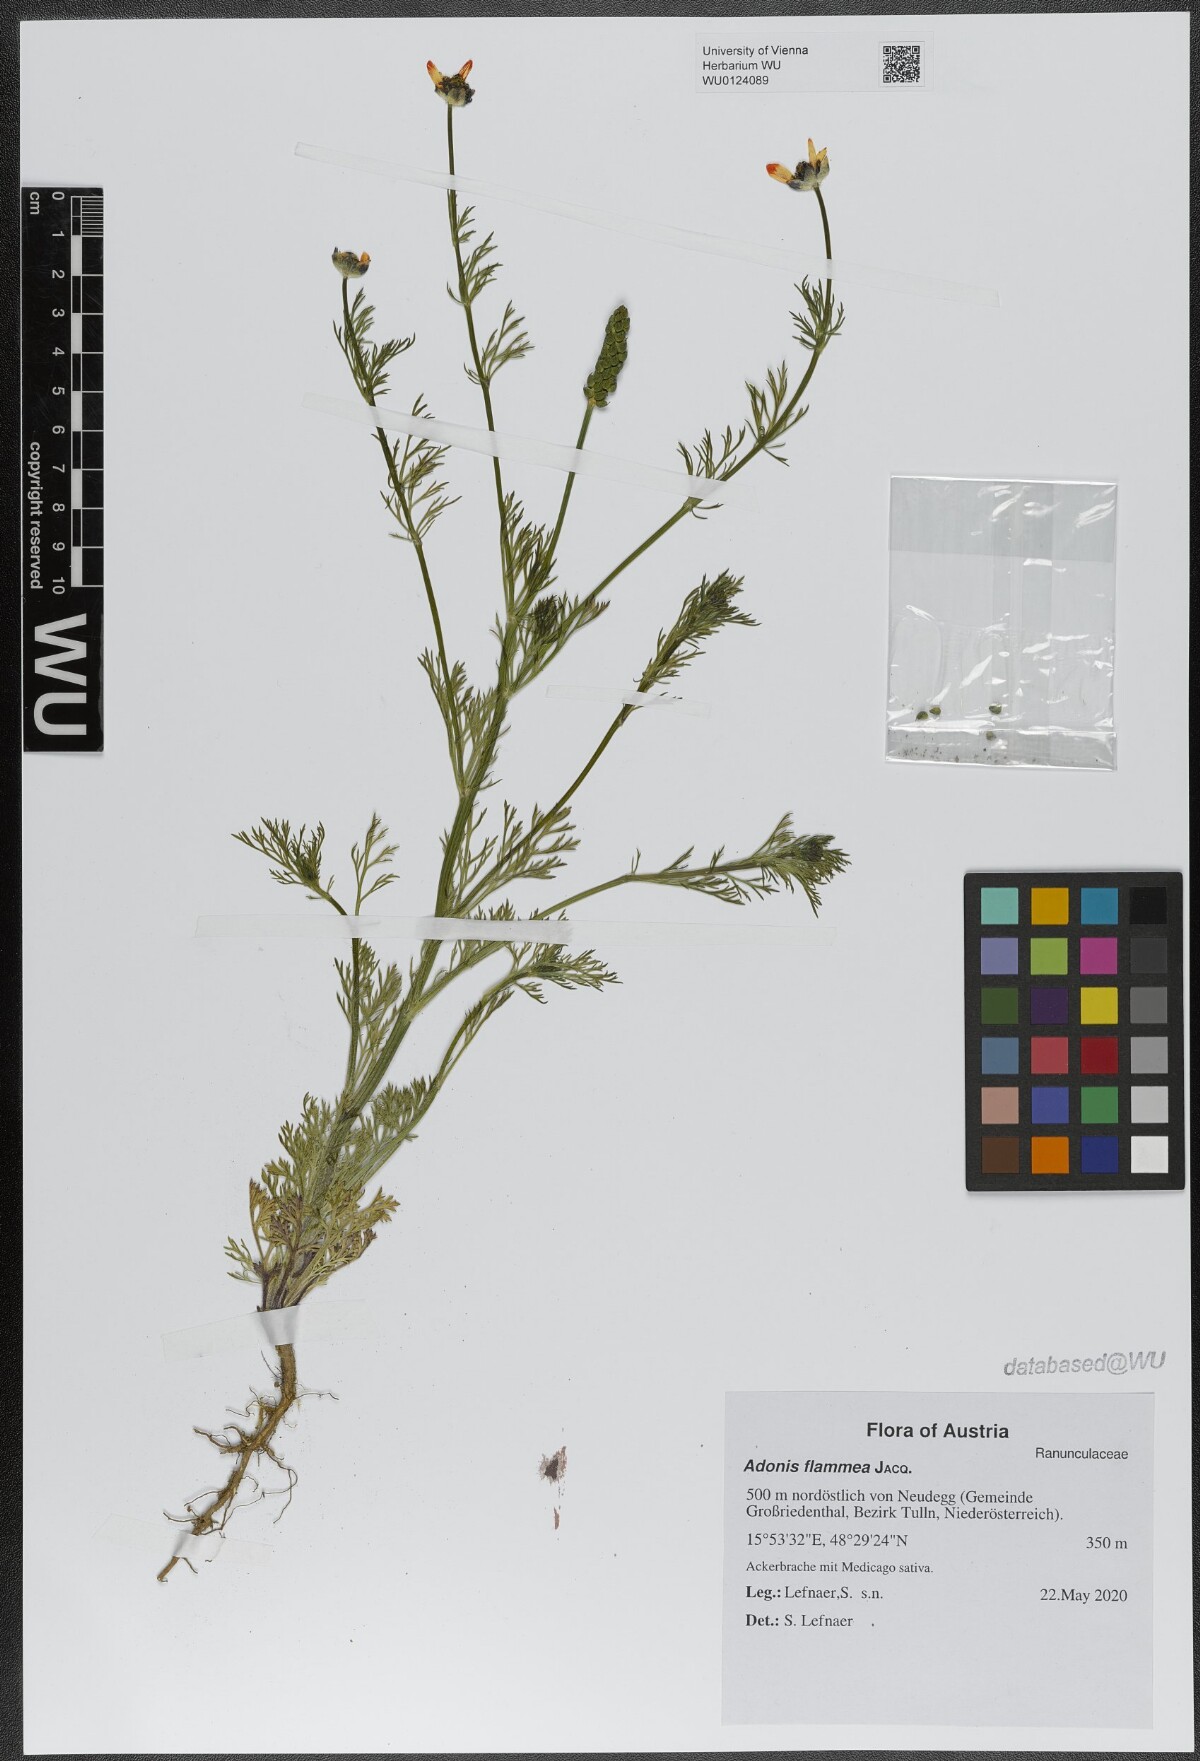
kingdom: Plantae
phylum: Tracheophyta
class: Magnoliopsida
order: Ranunculales
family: Ranunculaceae
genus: Adonis
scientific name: Adonis flammea
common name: Large pheasant's-eye
